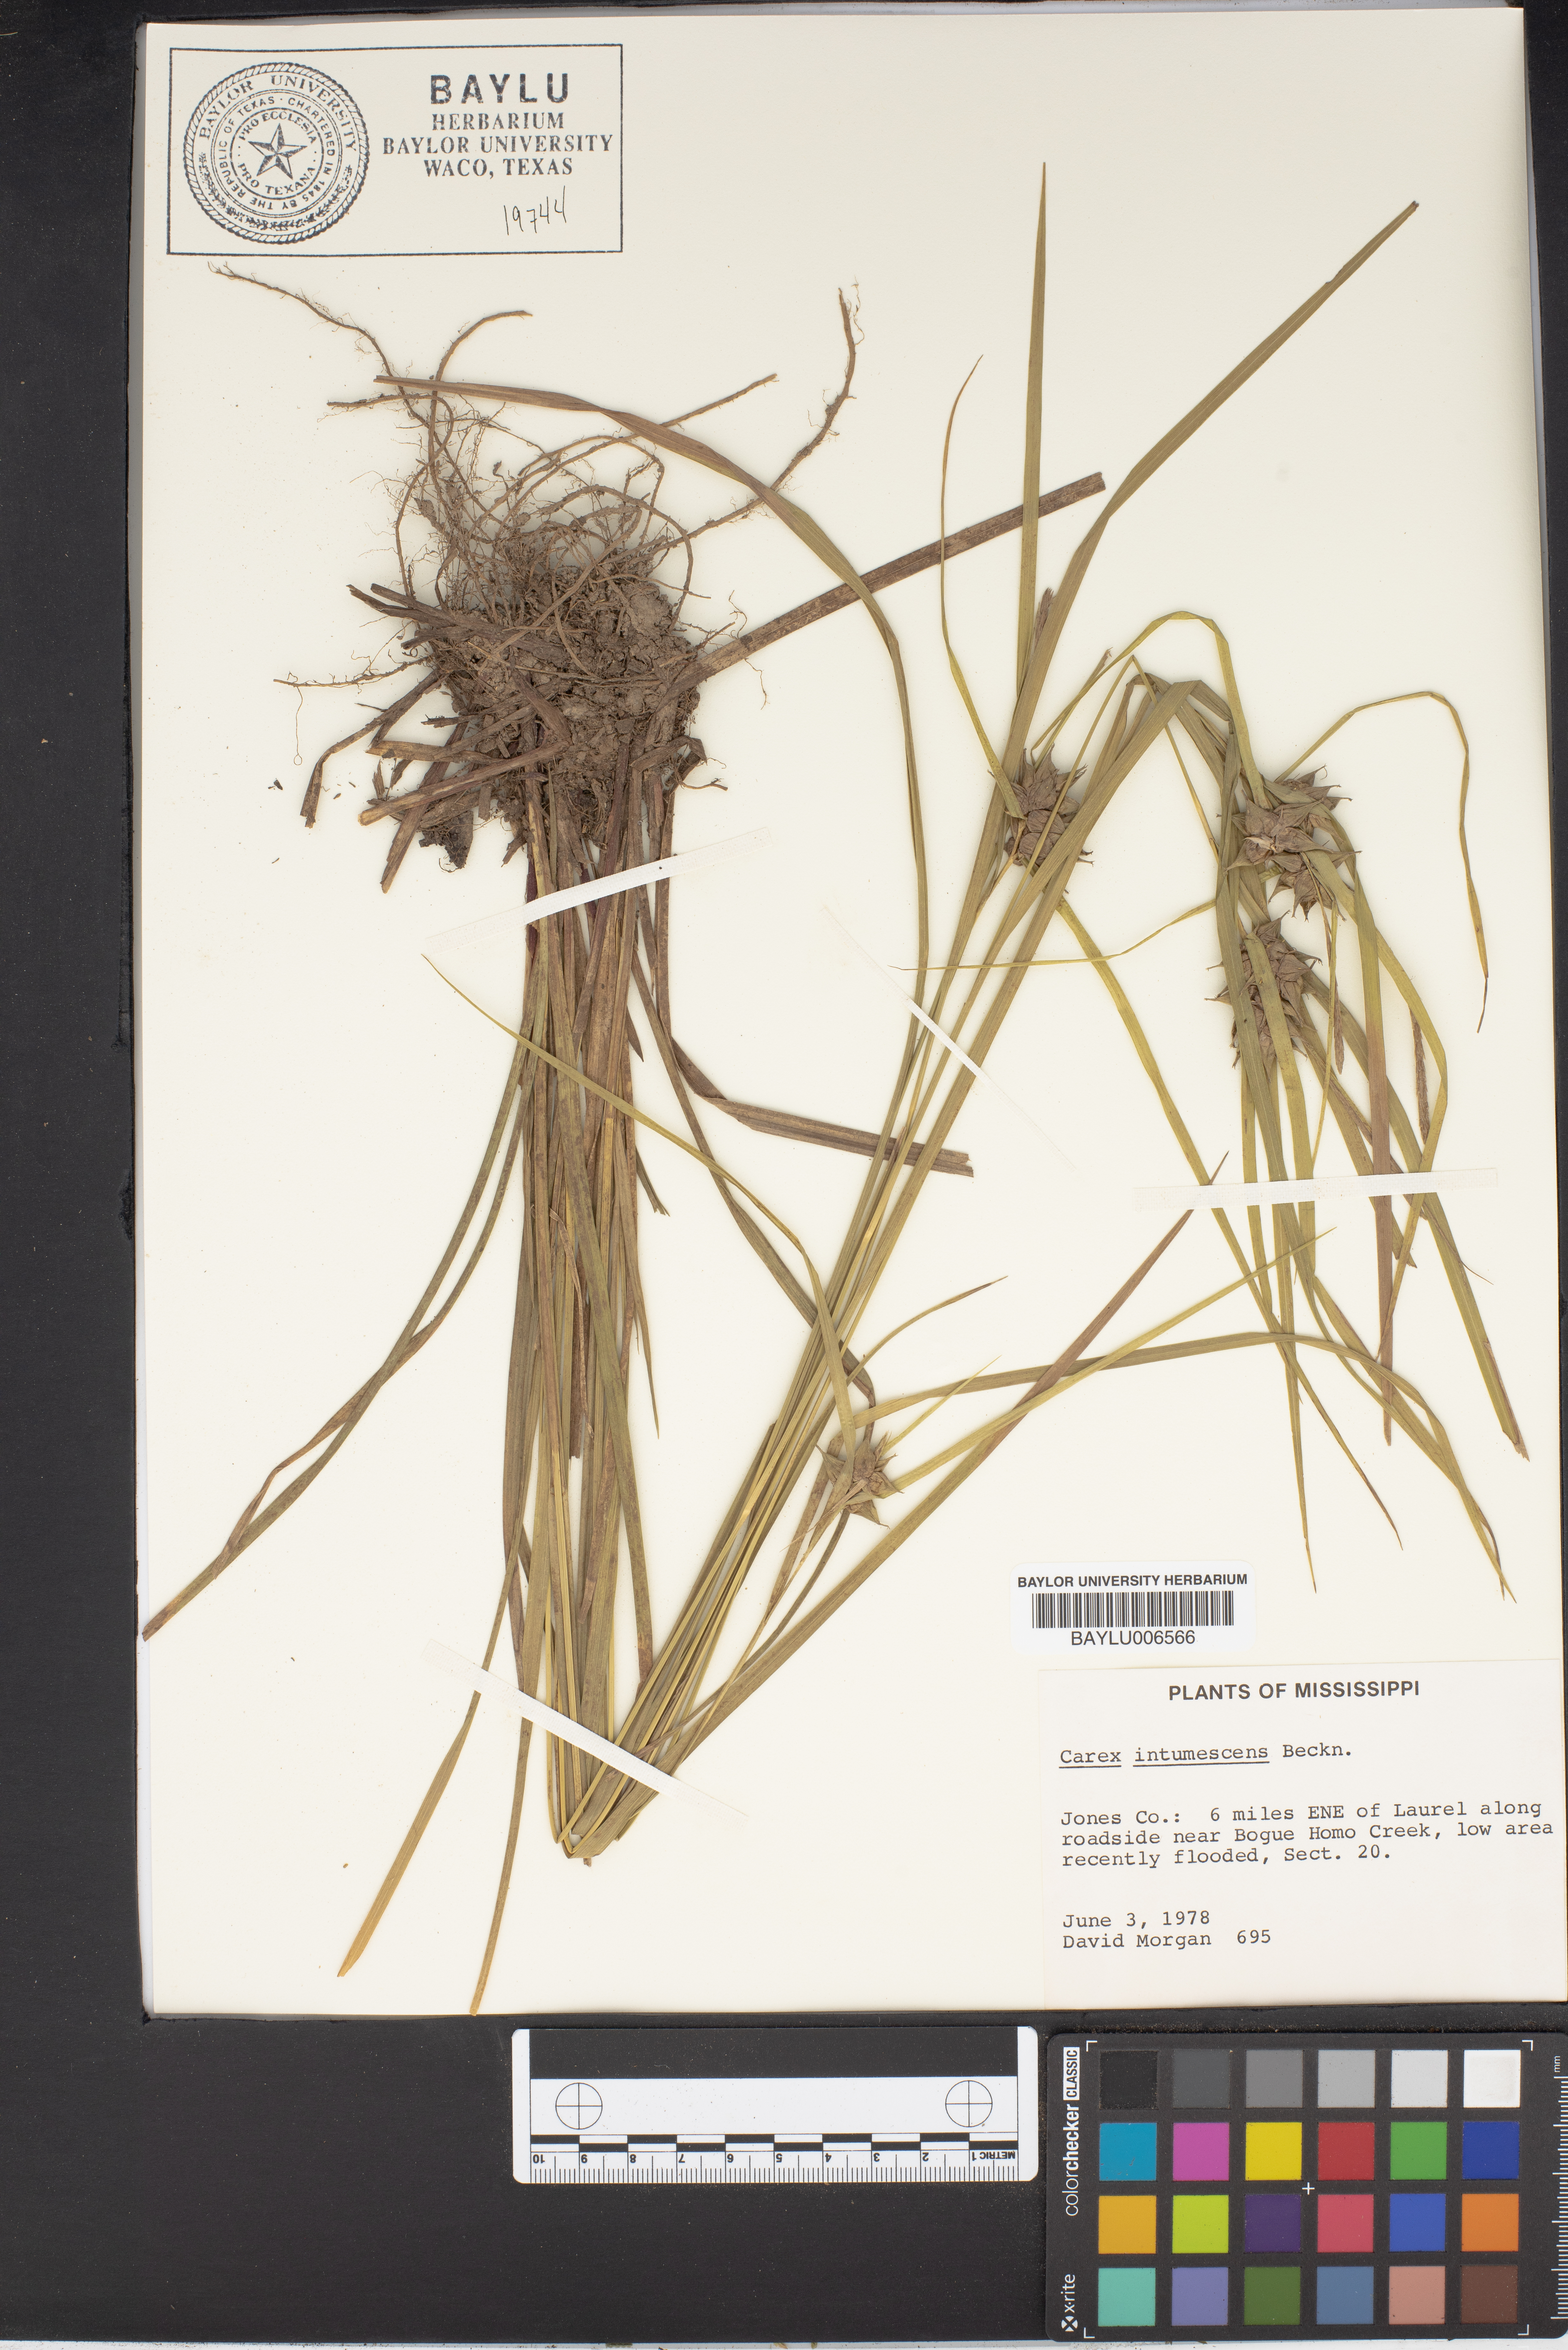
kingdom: Plantae
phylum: Tracheophyta
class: Liliopsida
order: Poales
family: Cyperaceae
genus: Carex
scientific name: Carex intumescens
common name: Greater bladder sedge
